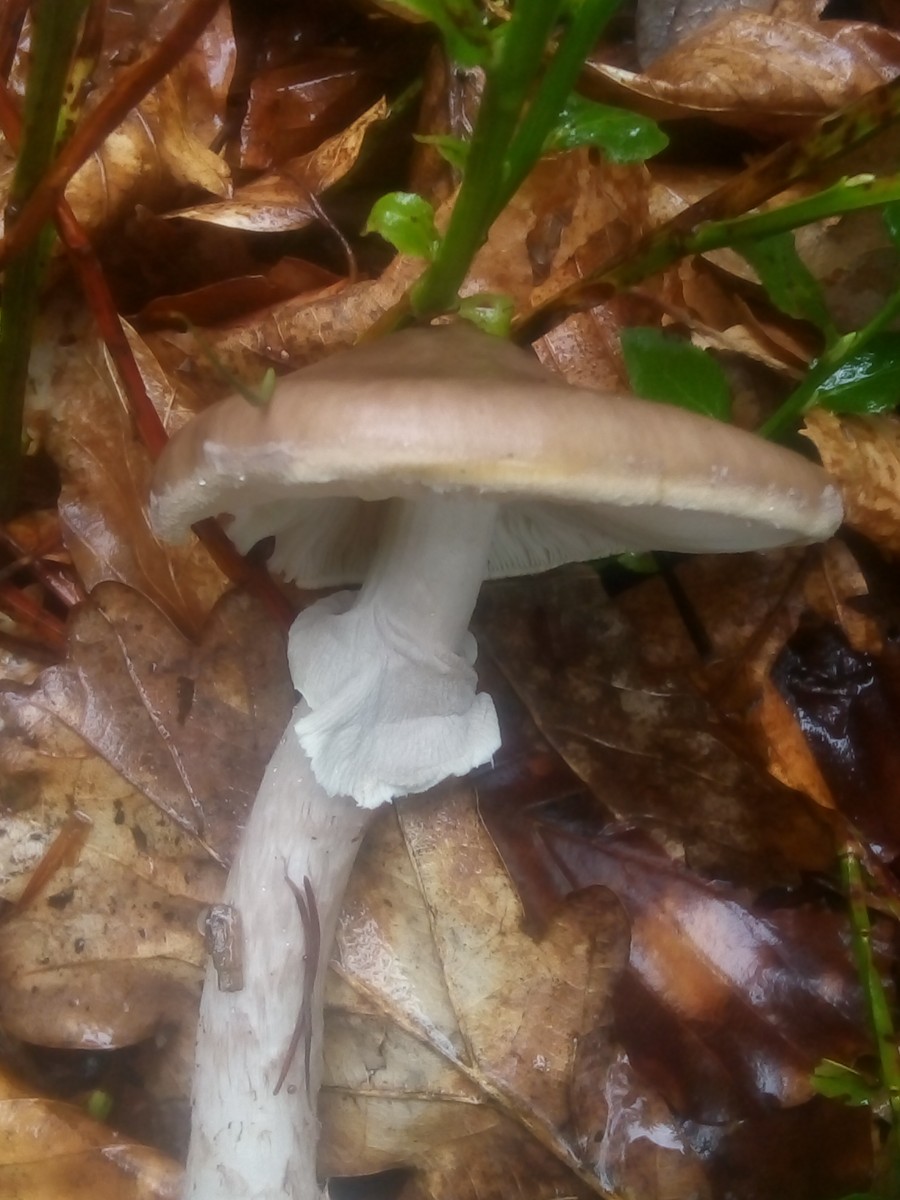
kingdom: Fungi
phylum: Basidiomycota
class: Agaricomycetes
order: Agaricales
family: Amanitaceae
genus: Amanita
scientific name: Amanita porphyria
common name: porfyr-fluesvamp
